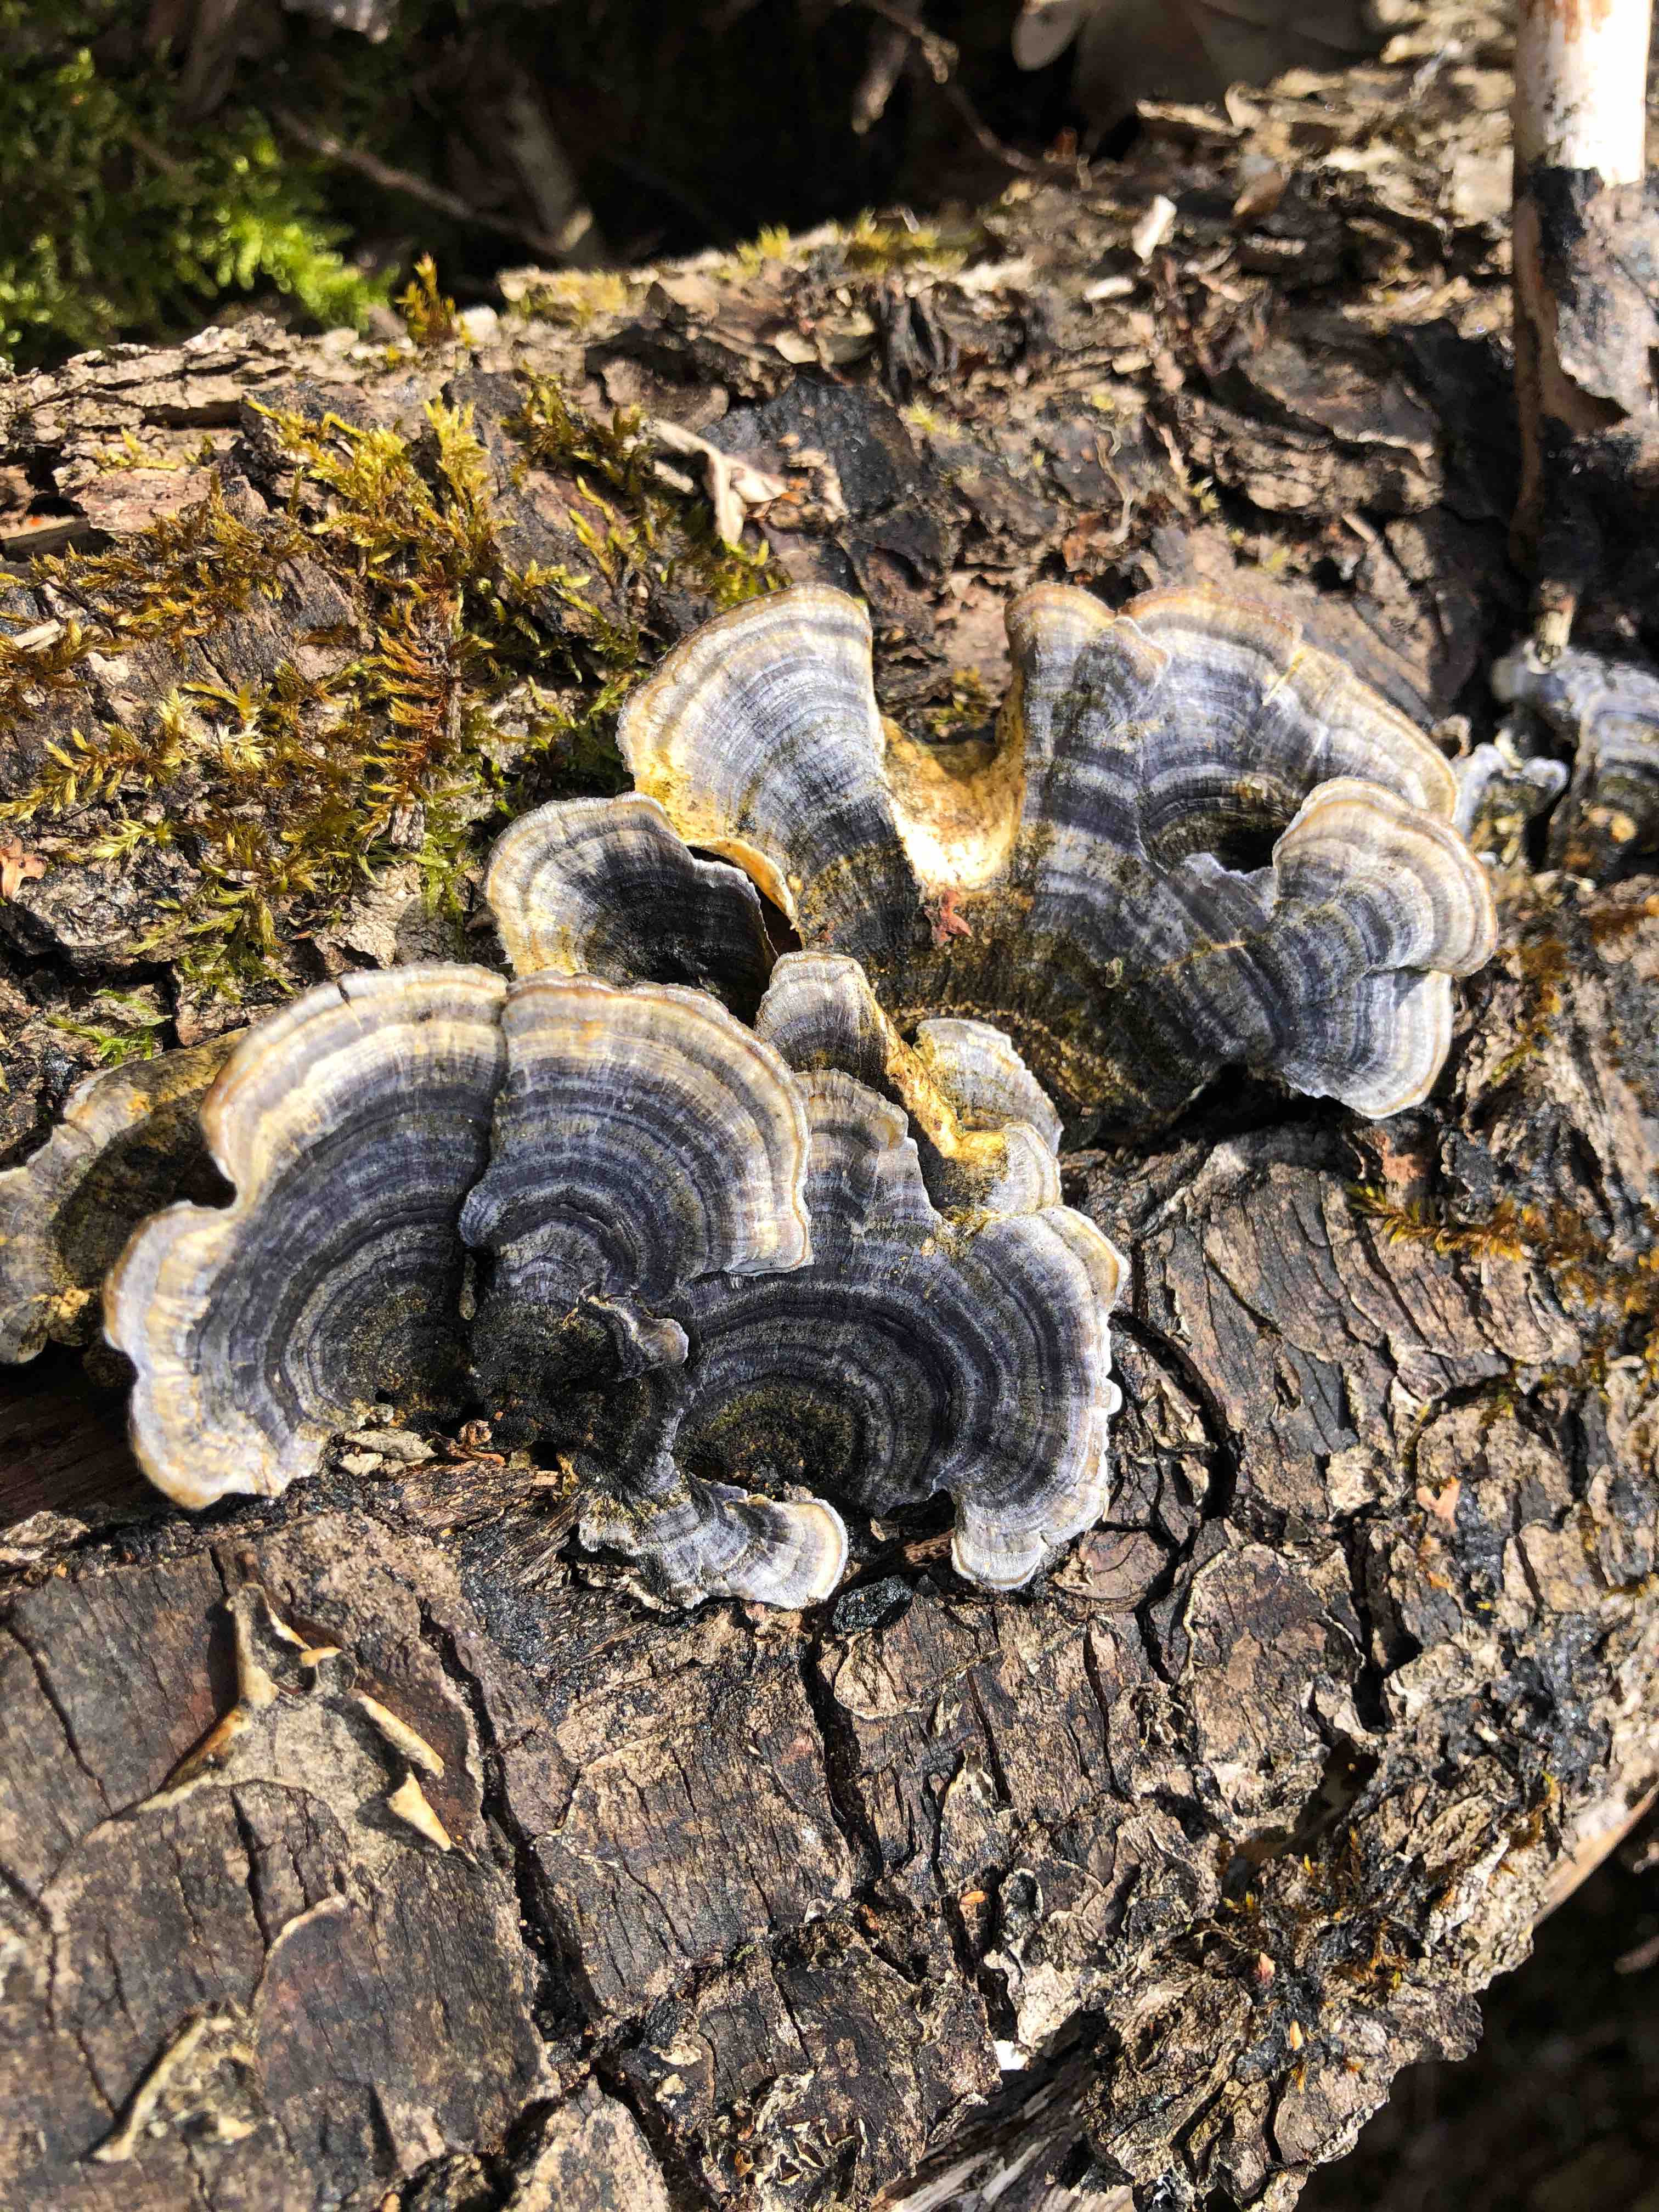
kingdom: Fungi
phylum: Basidiomycota
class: Agaricomycetes
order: Polyporales
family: Polyporaceae
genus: Trametes
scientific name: Trametes versicolor
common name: broget læderporesvamp
